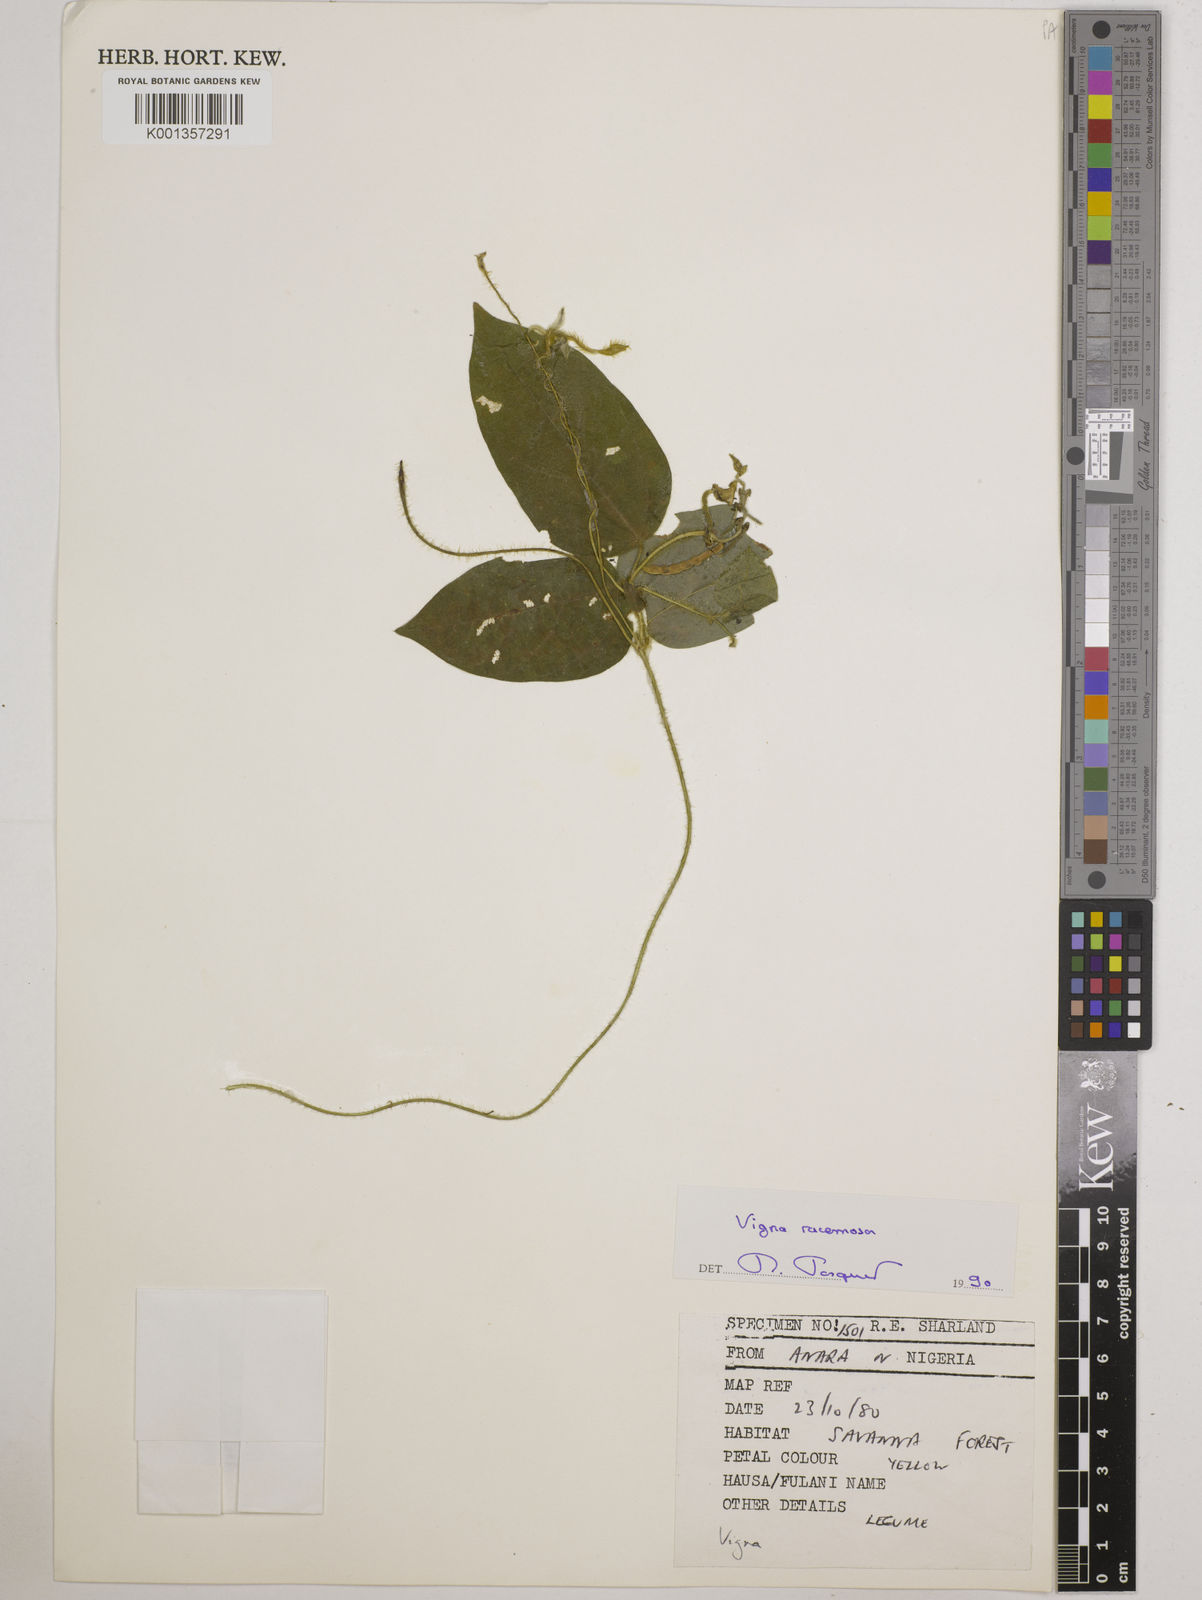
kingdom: Plantae
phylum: Tracheophyta
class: Magnoliopsida
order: Fabales
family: Fabaceae
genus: Vigna
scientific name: Vigna racemosa
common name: Beans not eaten
